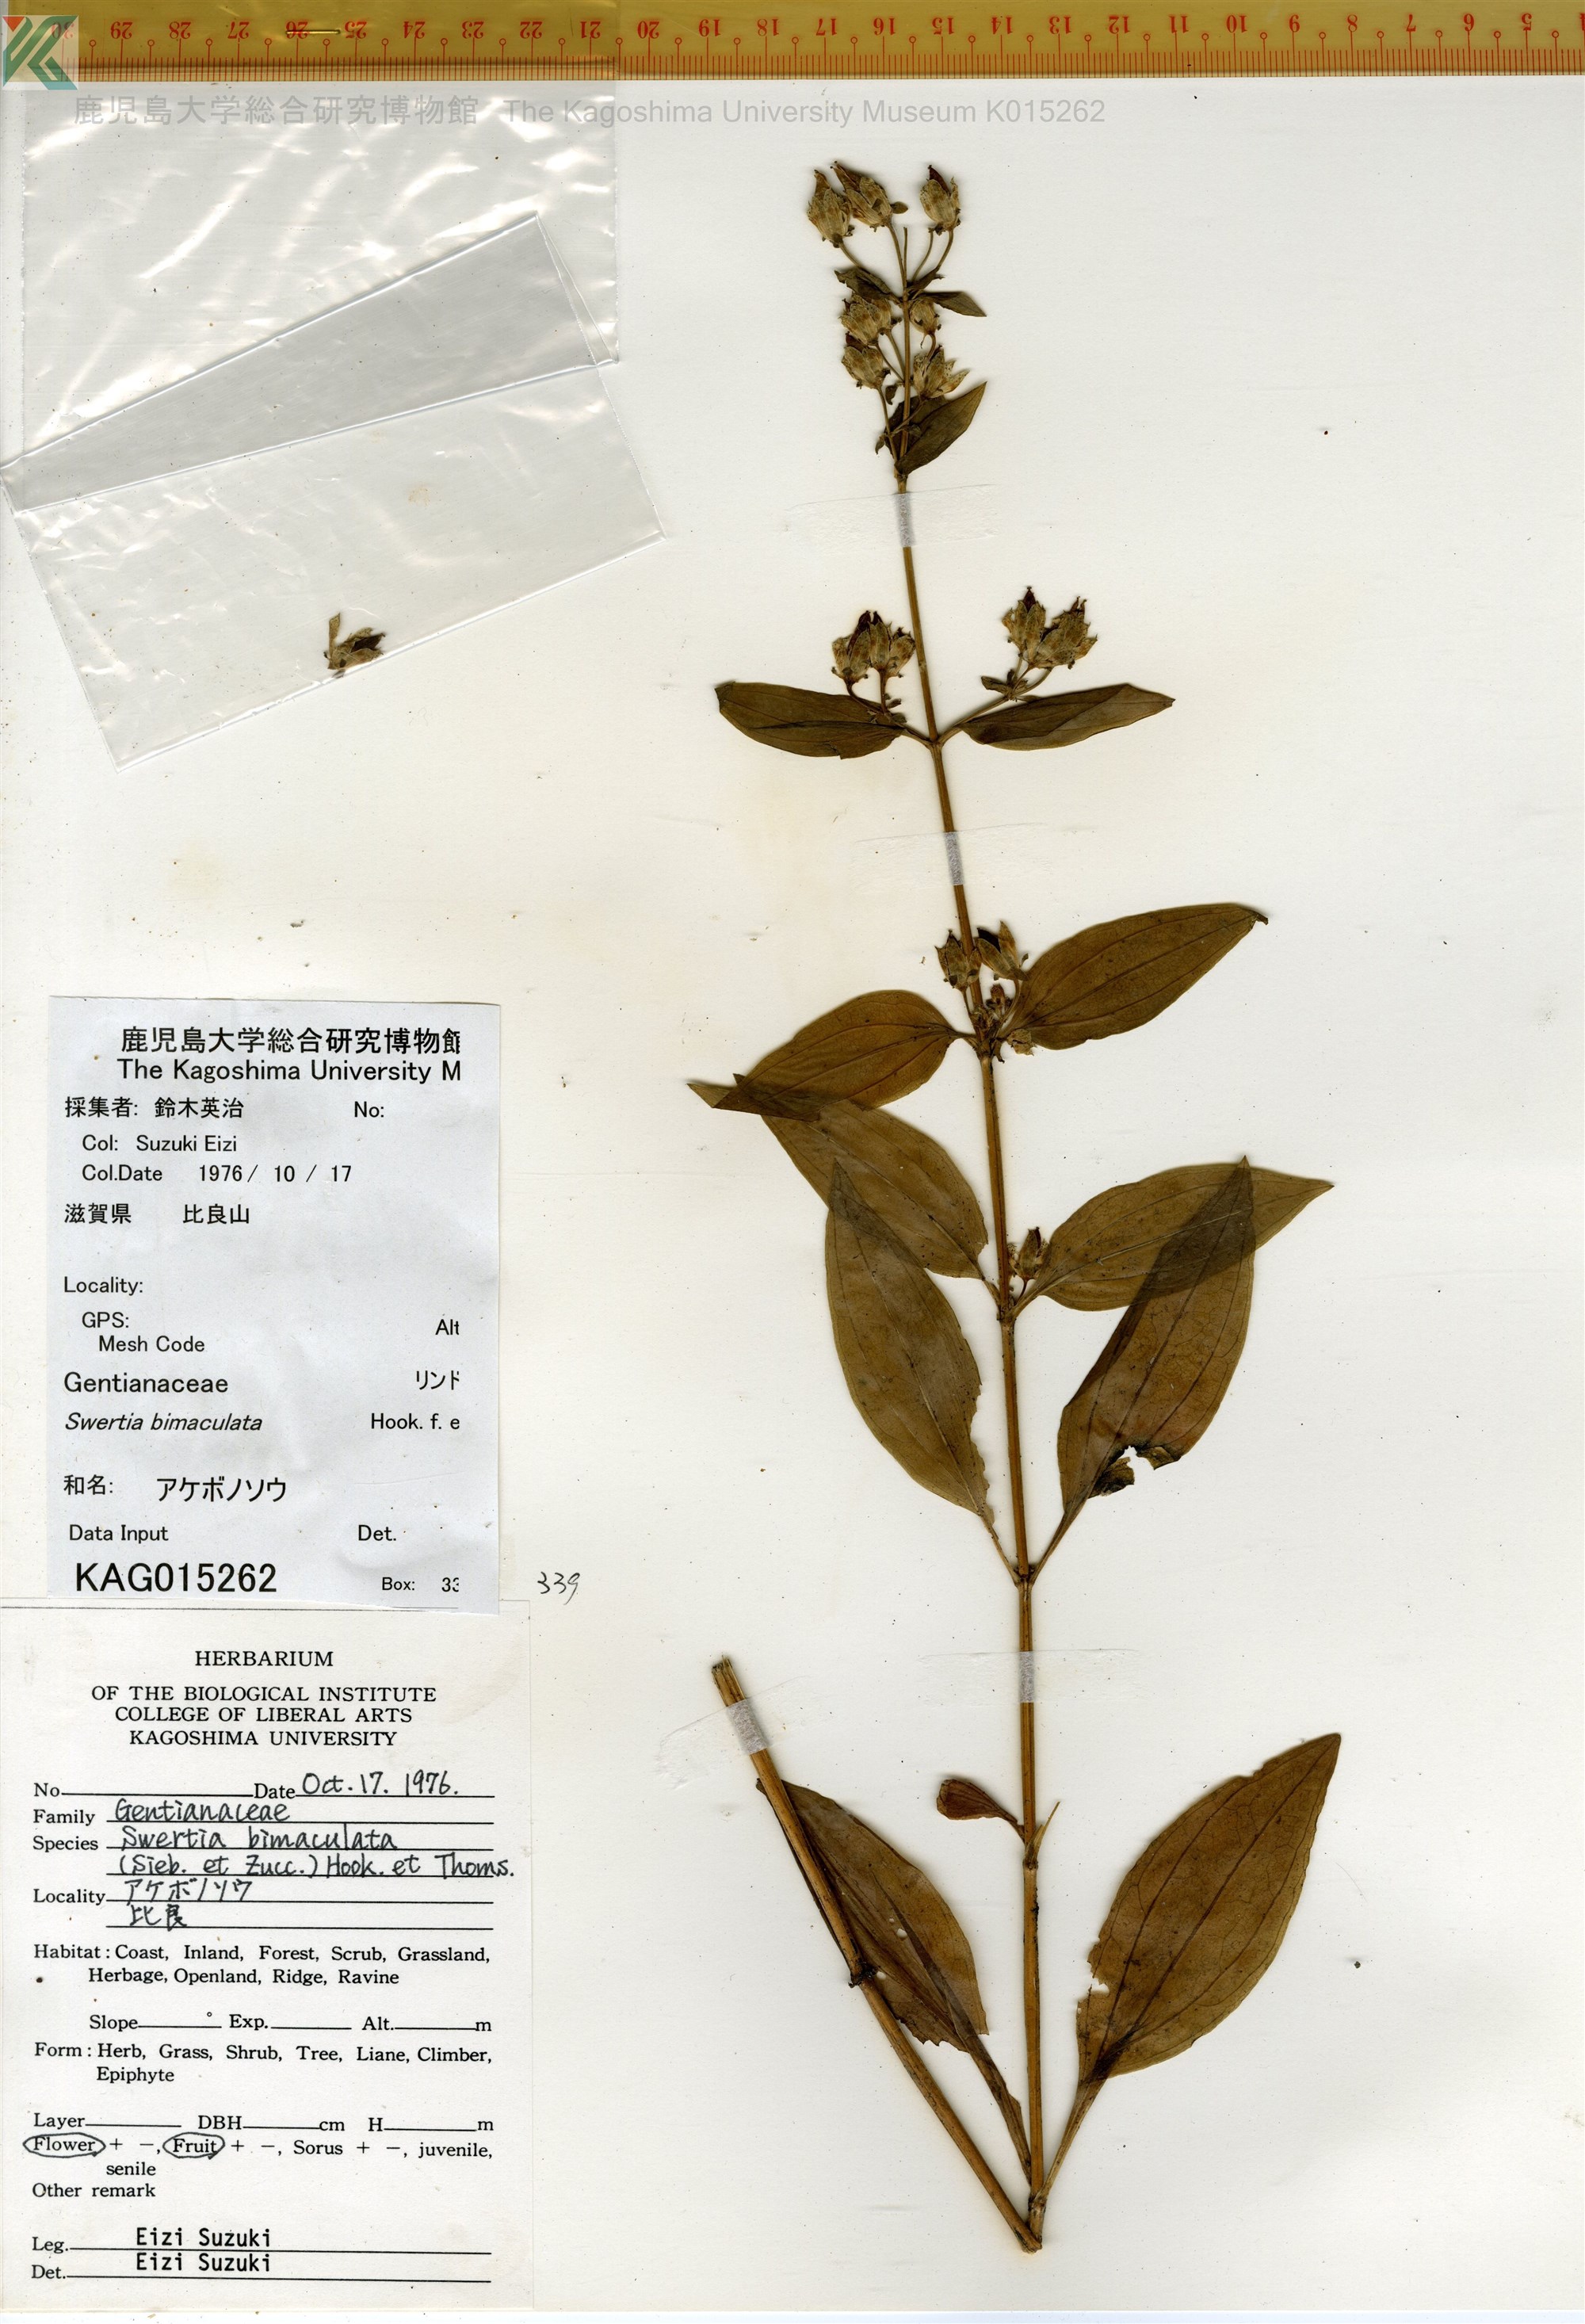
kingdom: Plantae
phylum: Tracheophyta
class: Magnoliopsida
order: Gentianales
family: Gentianaceae
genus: Swertia
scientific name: Swertia bimaculata
